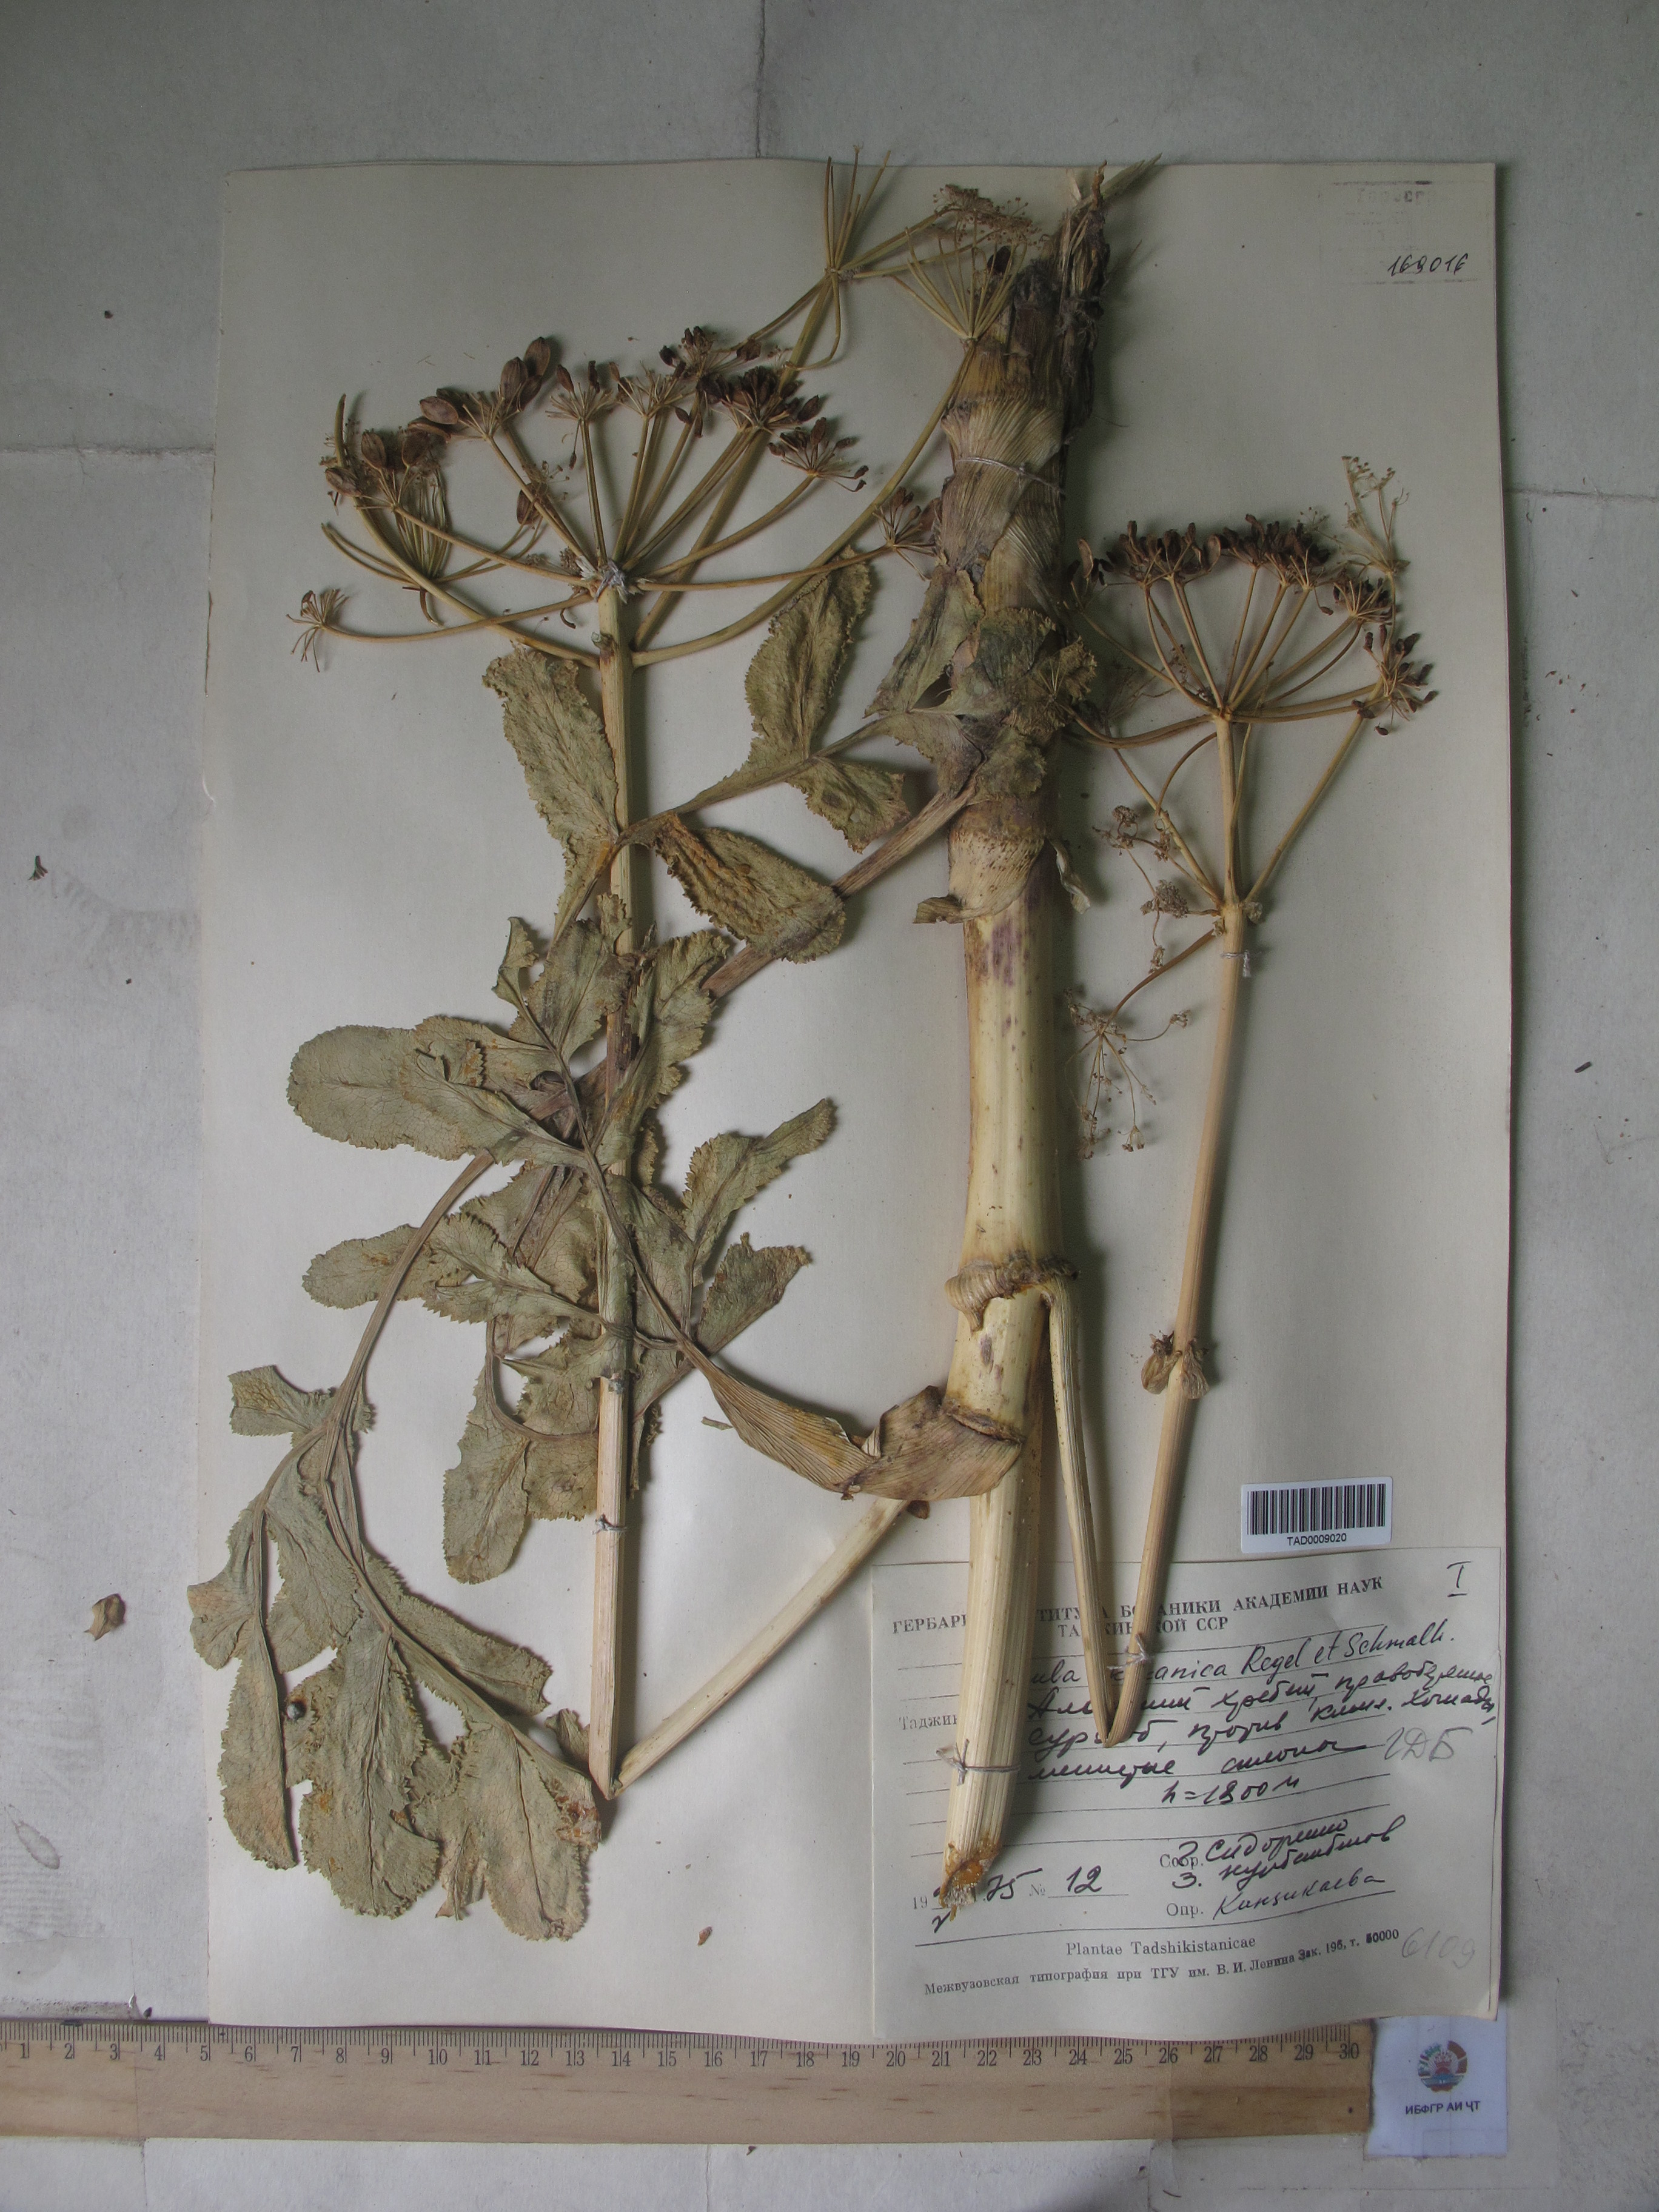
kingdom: Plantae
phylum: Tracheophyta
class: Magnoliopsida
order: Apiales
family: Apiaceae
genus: Ferula
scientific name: Ferula kokanica
